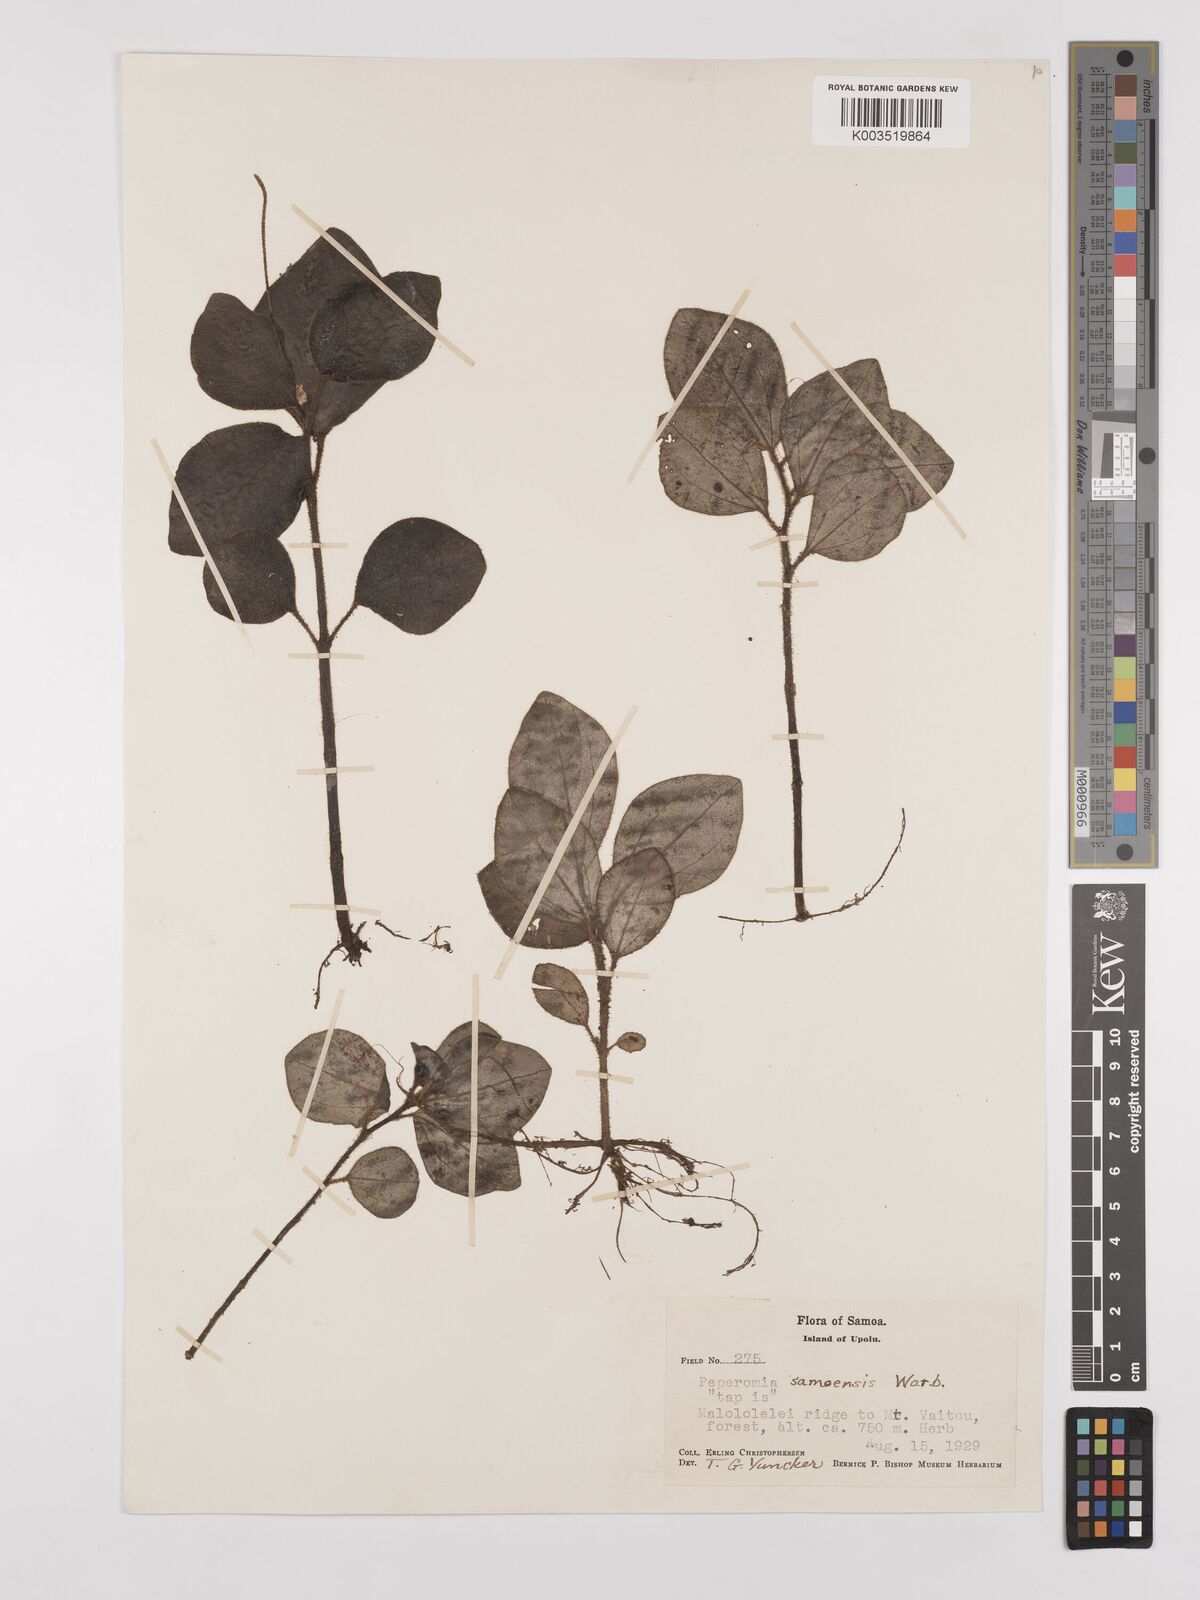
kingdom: Plantae
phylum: Tracheophyta
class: Magnoliopsida
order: Piperales
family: Piperaceae
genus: Peperomia
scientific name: Peperomia samoensis
